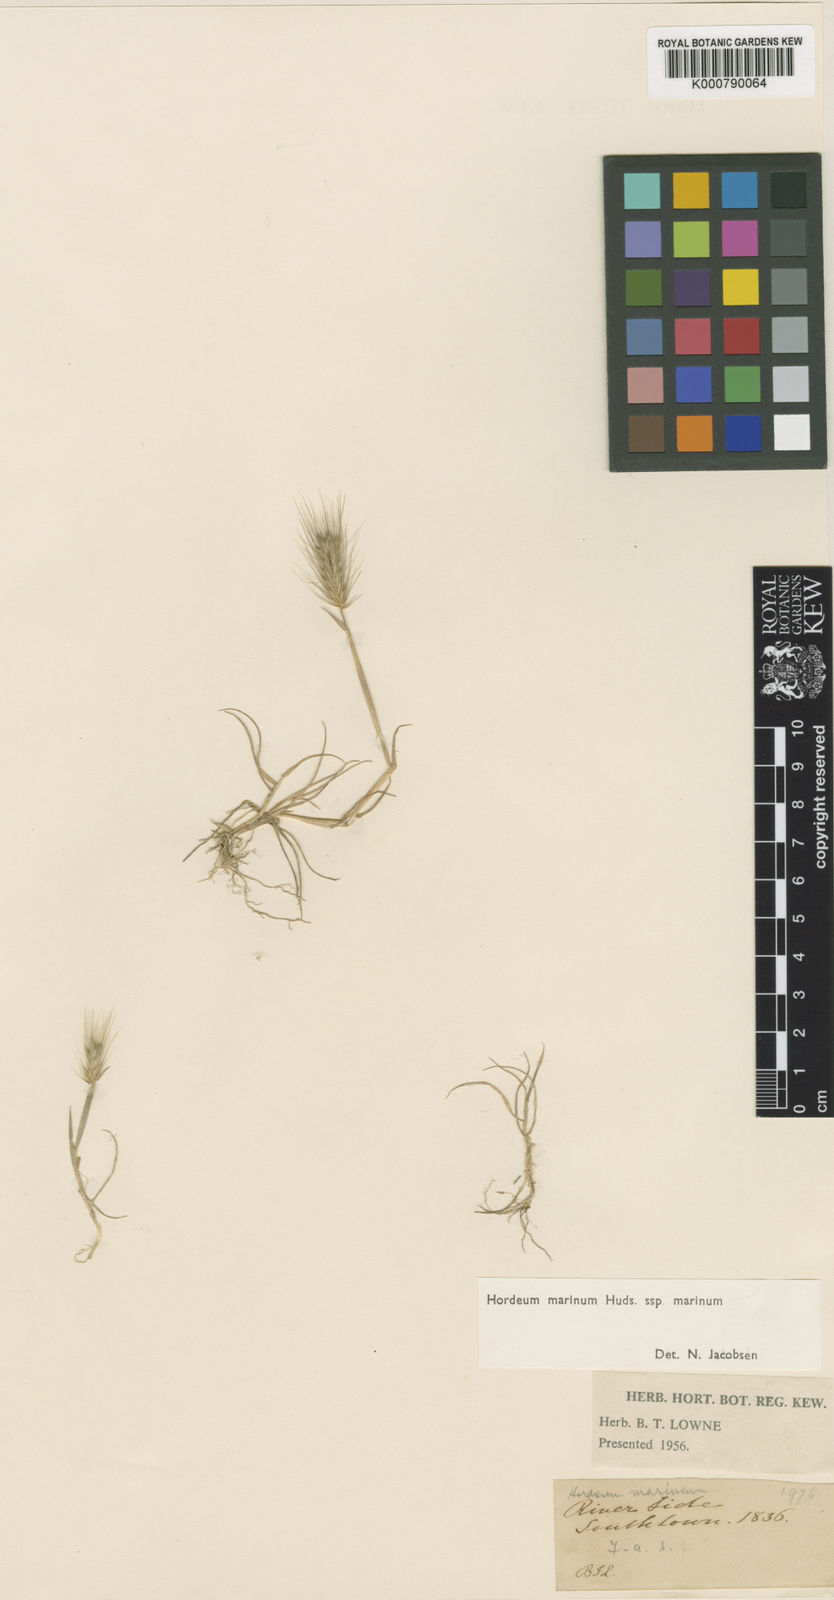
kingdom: Plantae
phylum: Tracheophyta
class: Liliopsida
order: Poales
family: Poaceae
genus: Hordeum
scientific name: Hordeum marinum
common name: Sea barley
